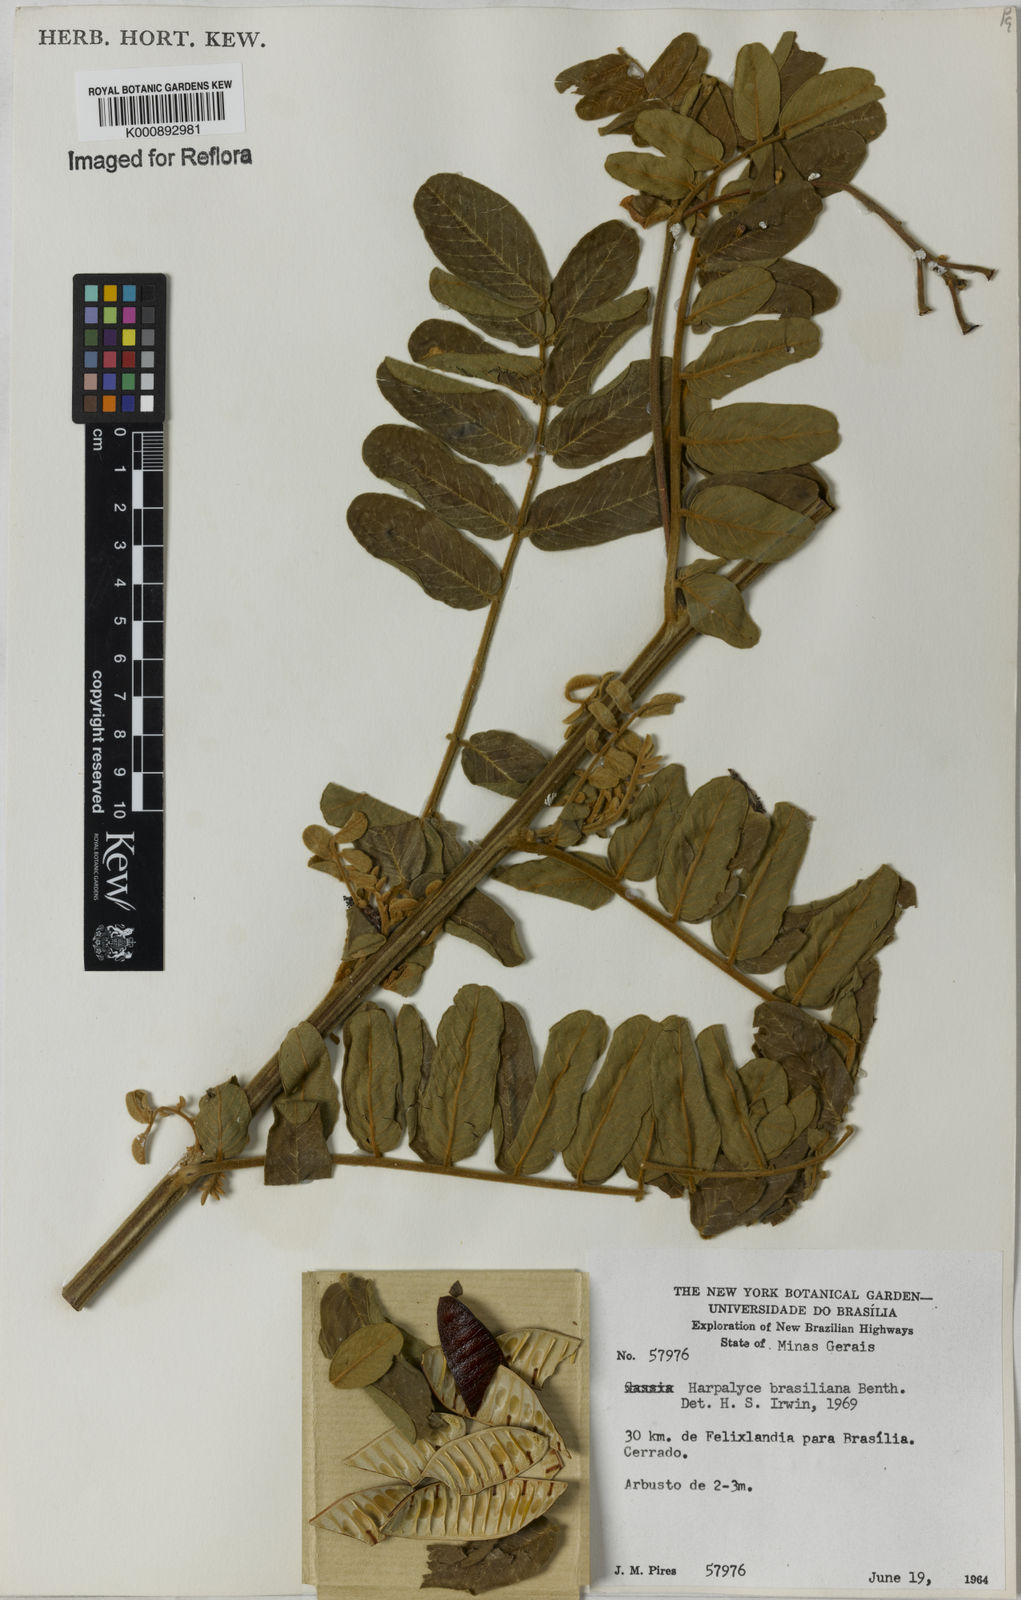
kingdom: Plantae
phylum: Tracheophyta
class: Magnoliopsida
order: Fabales
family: Fabaceae
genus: Harpalyce
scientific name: Harpalyce brasiliana
